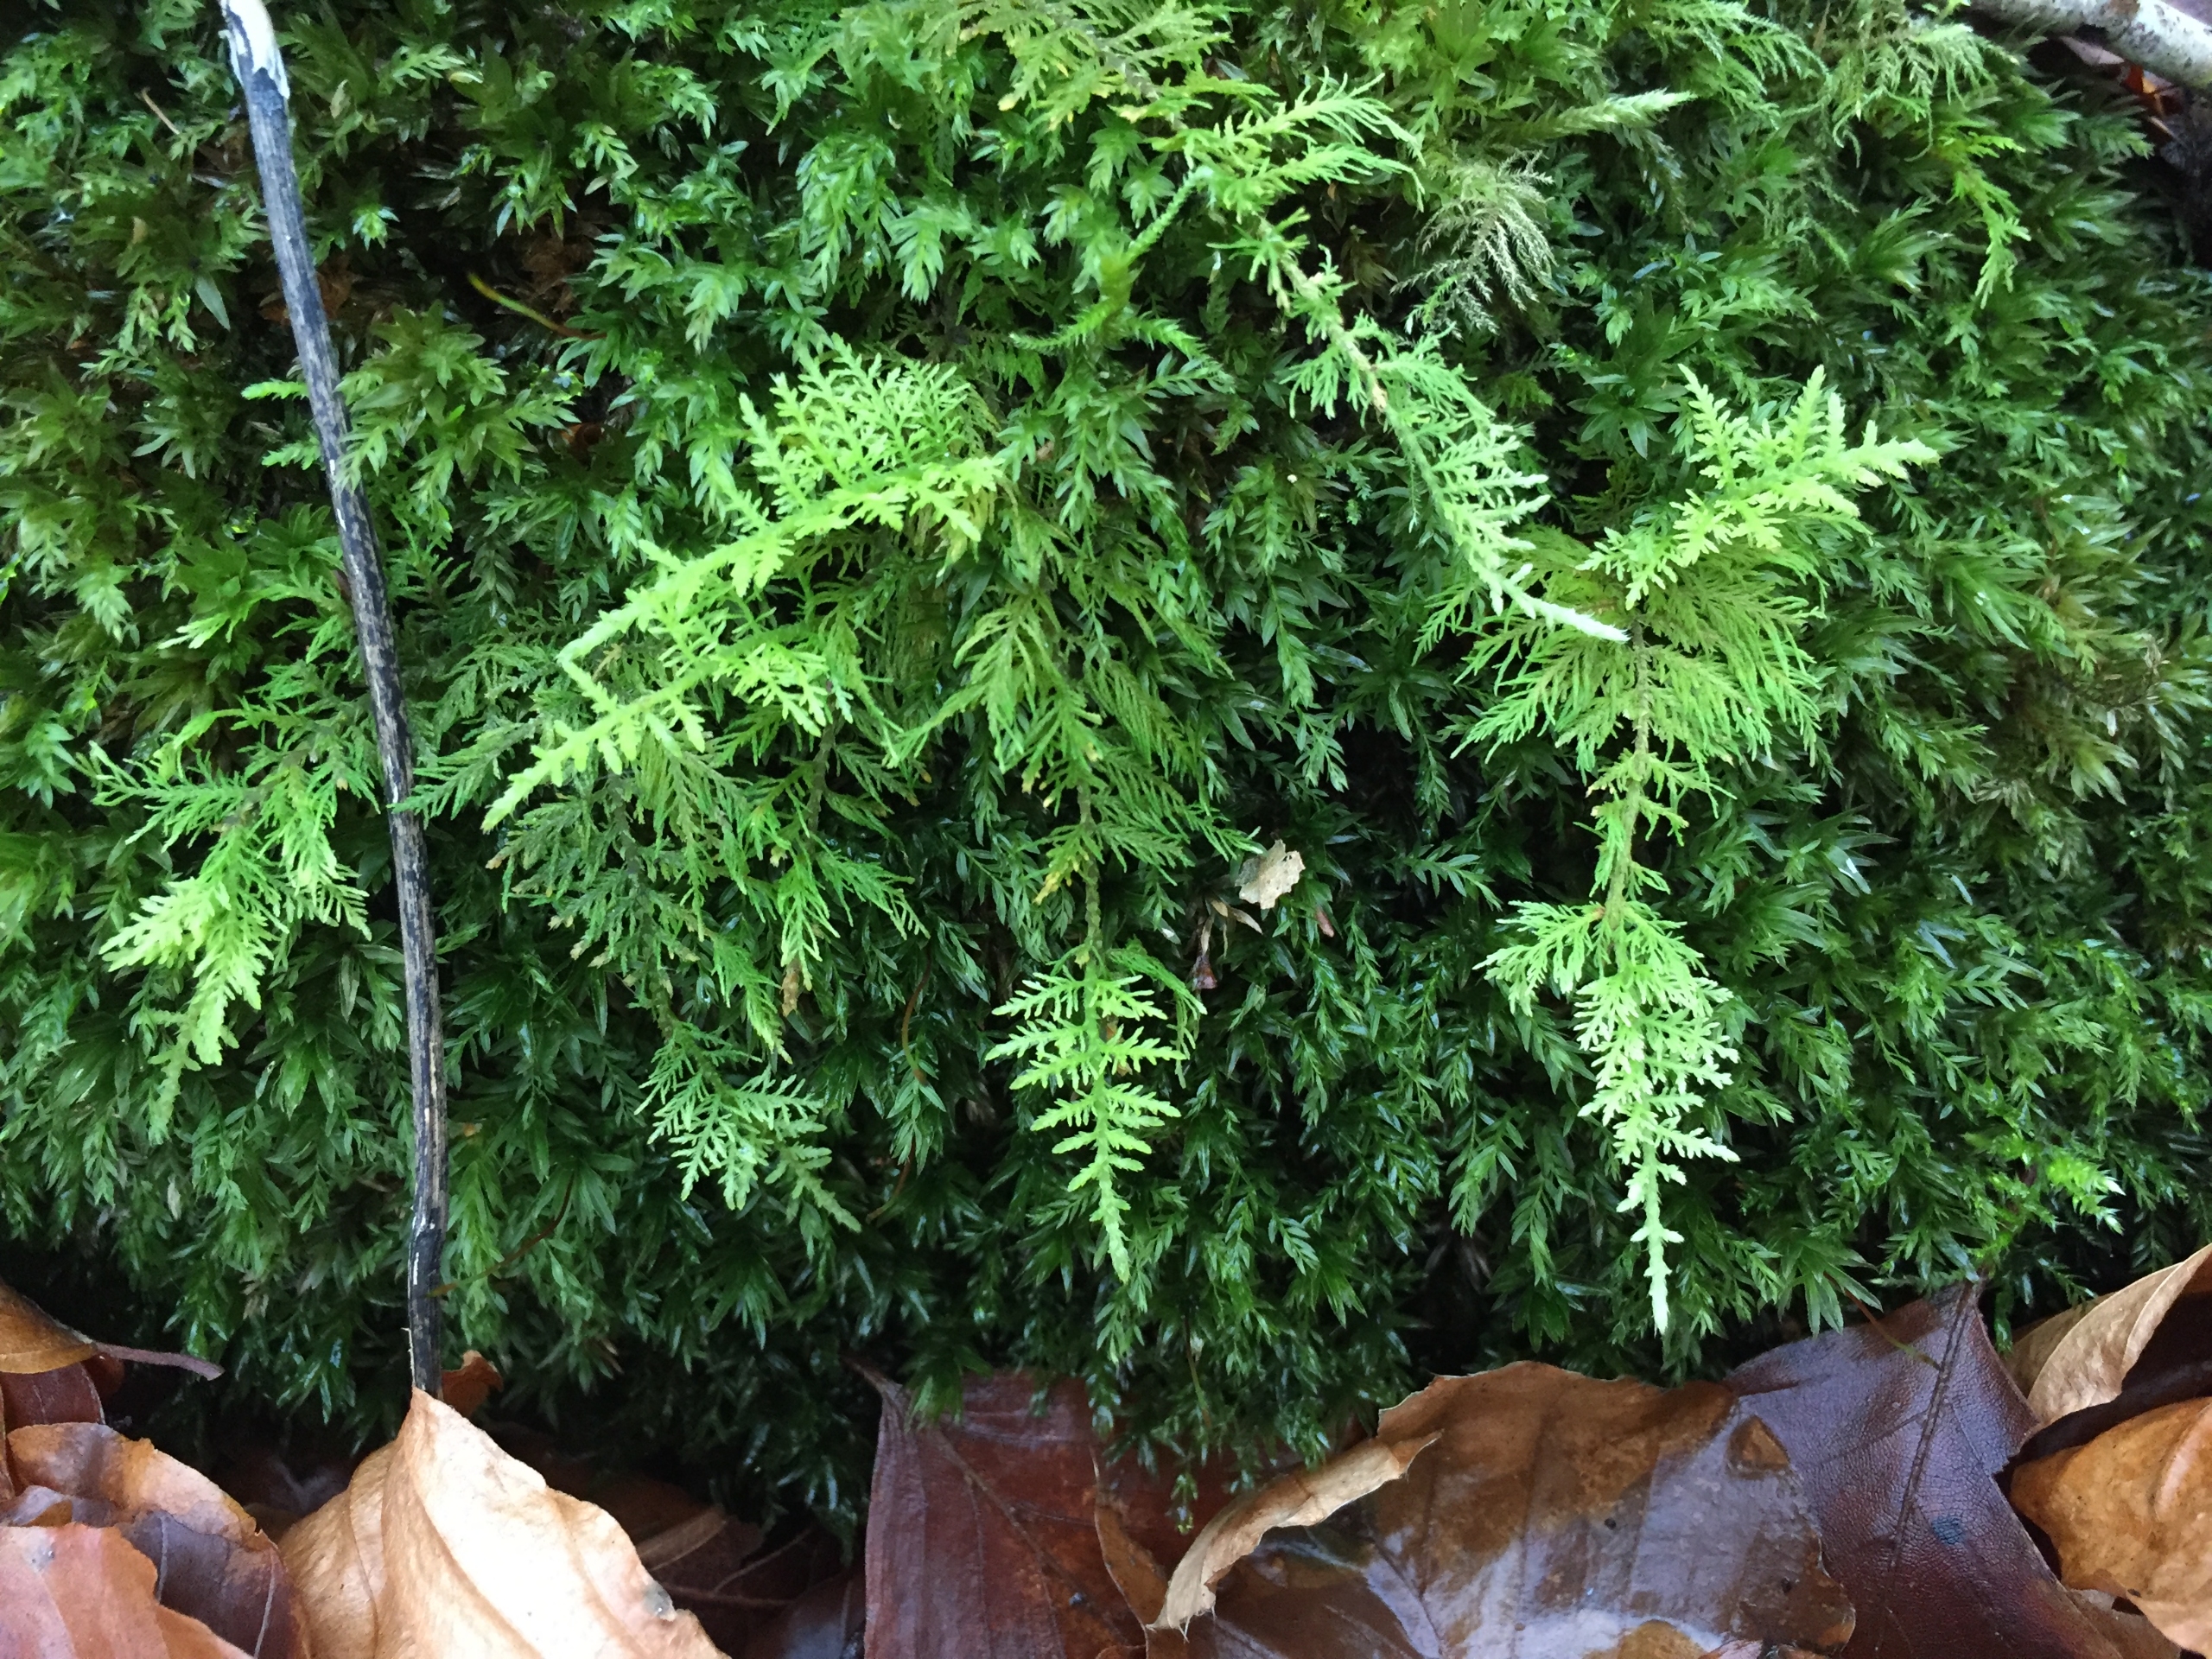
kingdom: Plantae
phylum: Bryophyta
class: Bryopsida
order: Hypnales
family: Thuidiaceae
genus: Thuidium
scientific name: Thuidium tamariscinum
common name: Pryd-bregnemos
